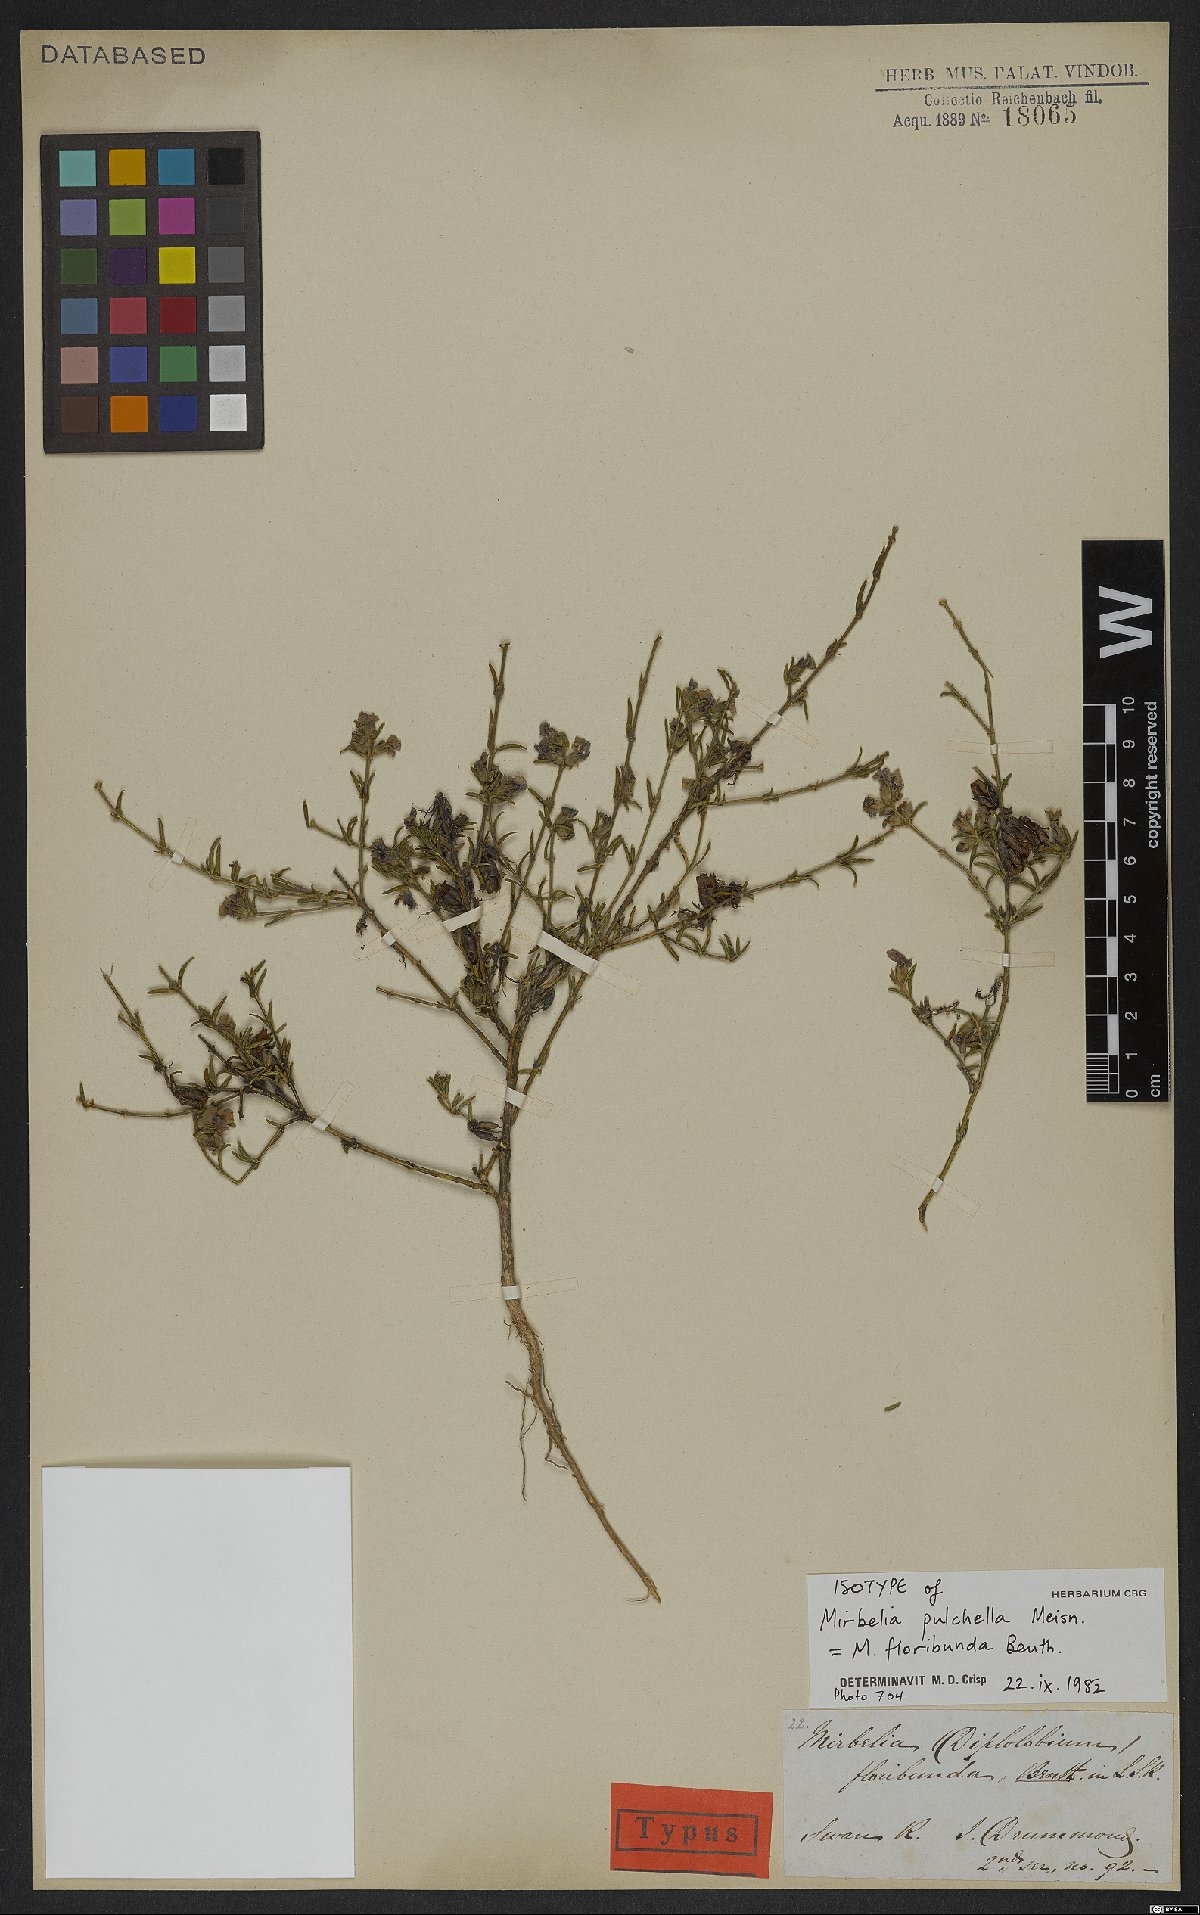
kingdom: Plantae
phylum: Tracheophyta
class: Magnoliopsida
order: Fabales
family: Fabaceae
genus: Mirbelia
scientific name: Mirbelia floribunda
